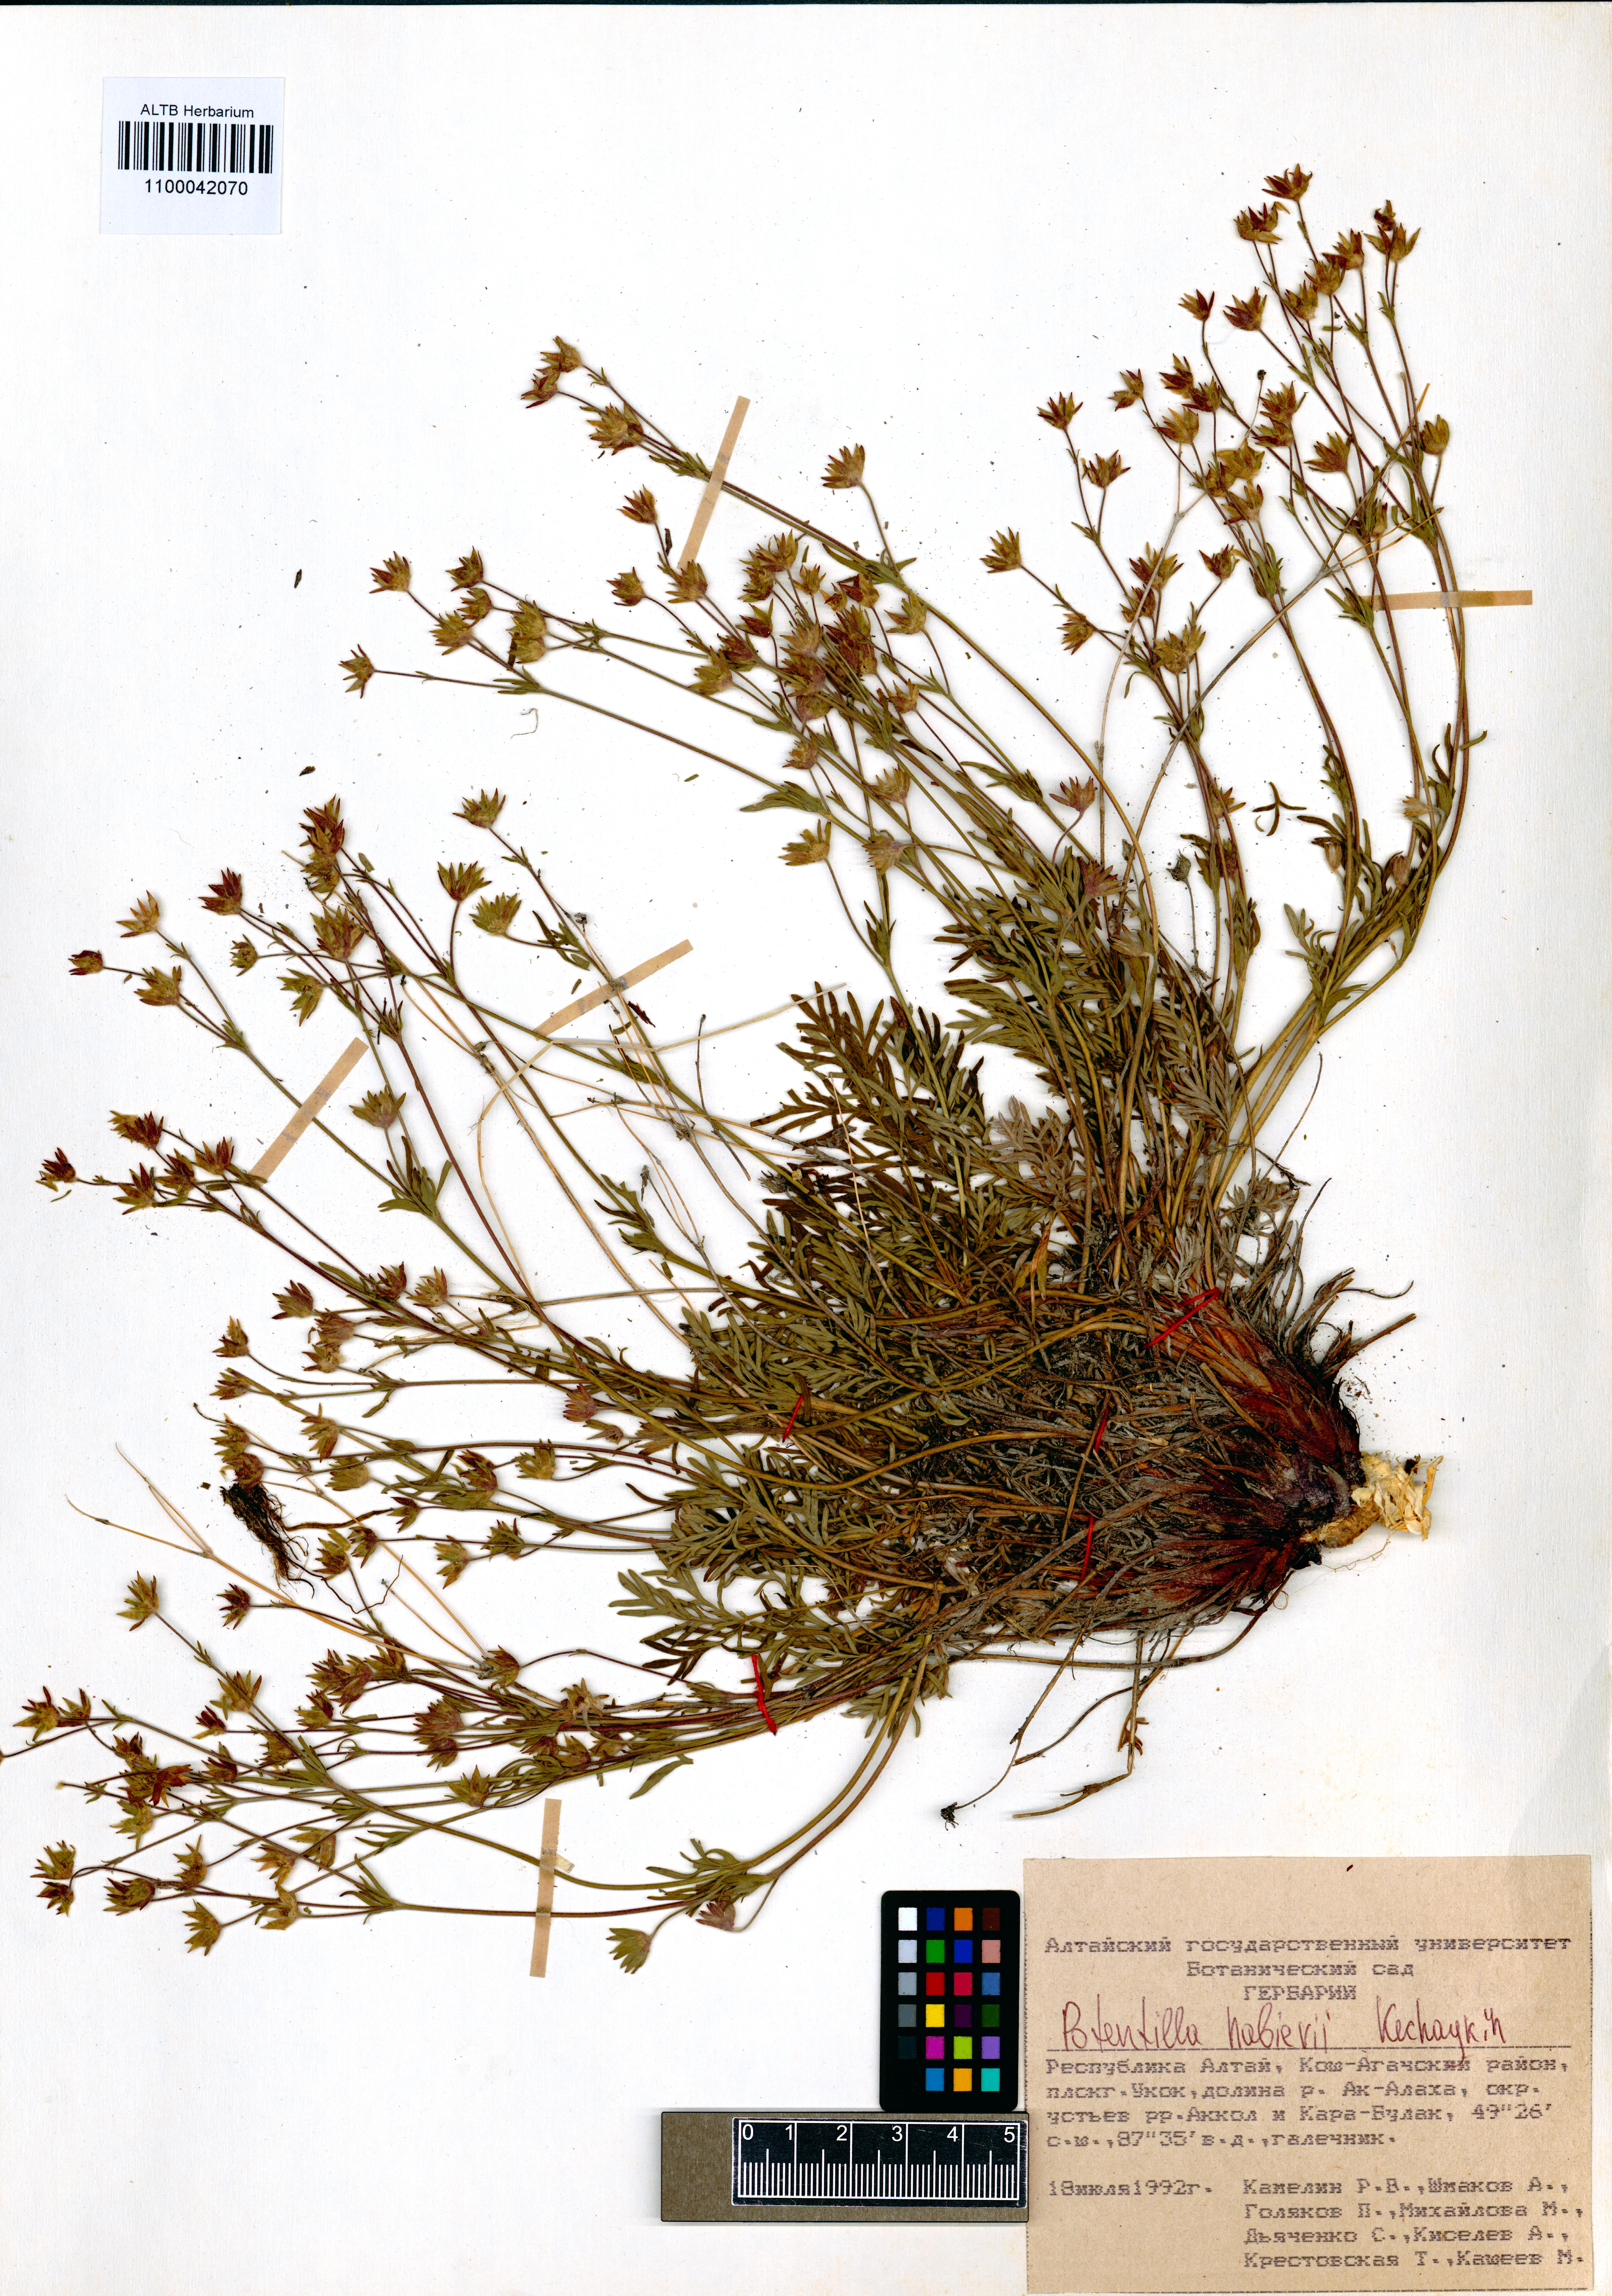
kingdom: Plantae
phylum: Tracheophyta
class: Magnoliopsida
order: Rosales
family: Rosaceae
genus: Potentilla
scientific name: Potentilla habievii
